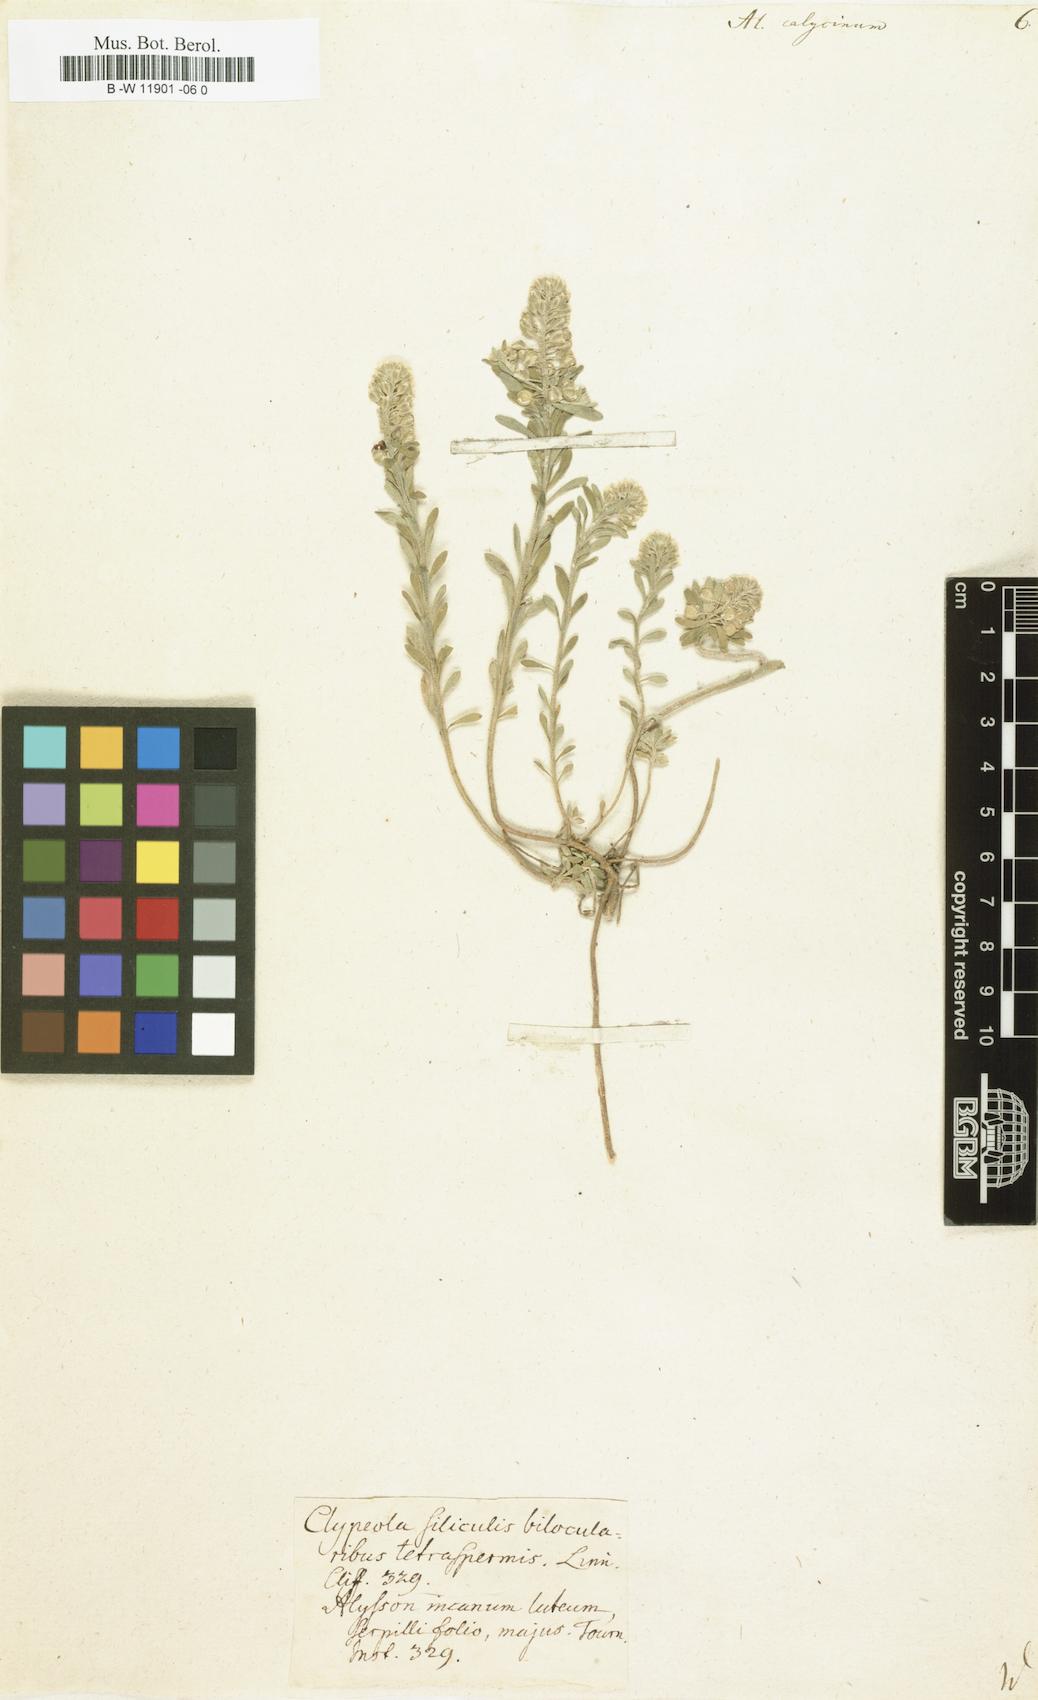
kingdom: Plantae
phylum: Tracheophyta
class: Magnoliopsida
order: Brassicales
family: Brassicaceae
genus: Alyssum
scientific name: Alyssum alyssoides
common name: Small alison
